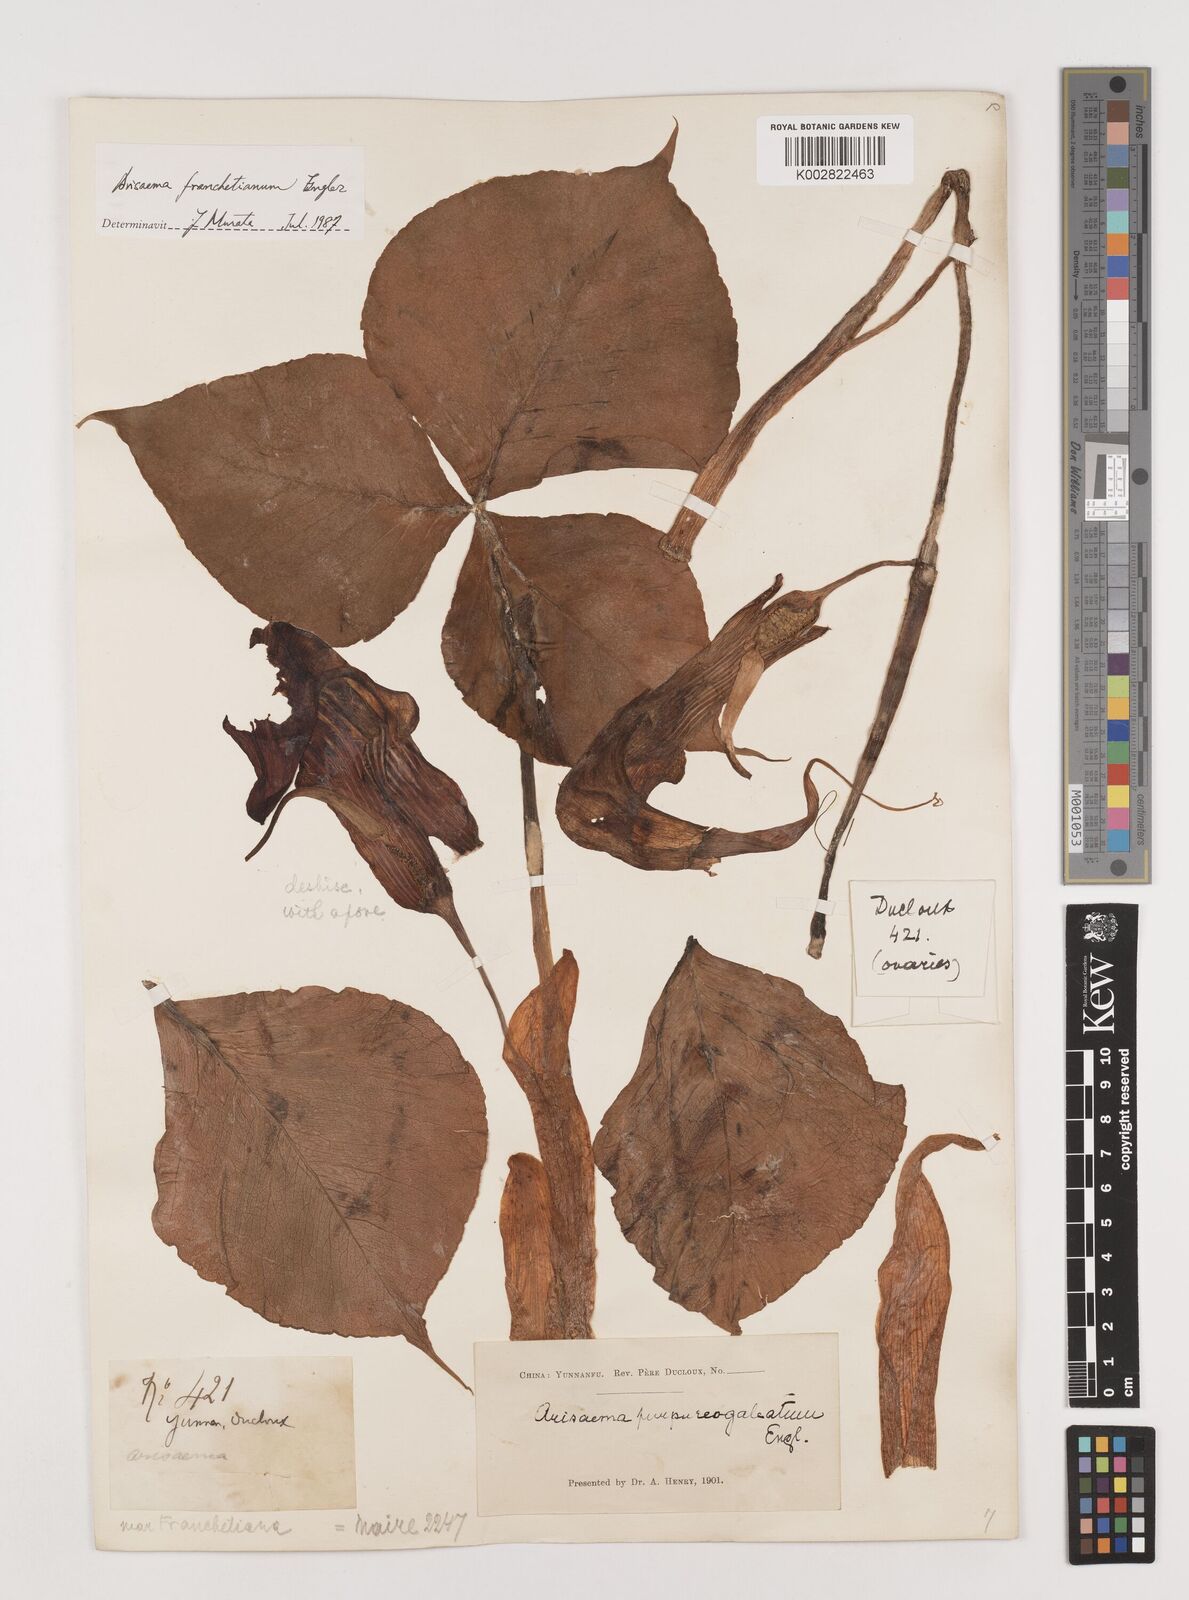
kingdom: Plantae
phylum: Tracheophyta
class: Liliopsida
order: Alismatales
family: Araceae
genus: Arisaema
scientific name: Arisaema franchetianum
